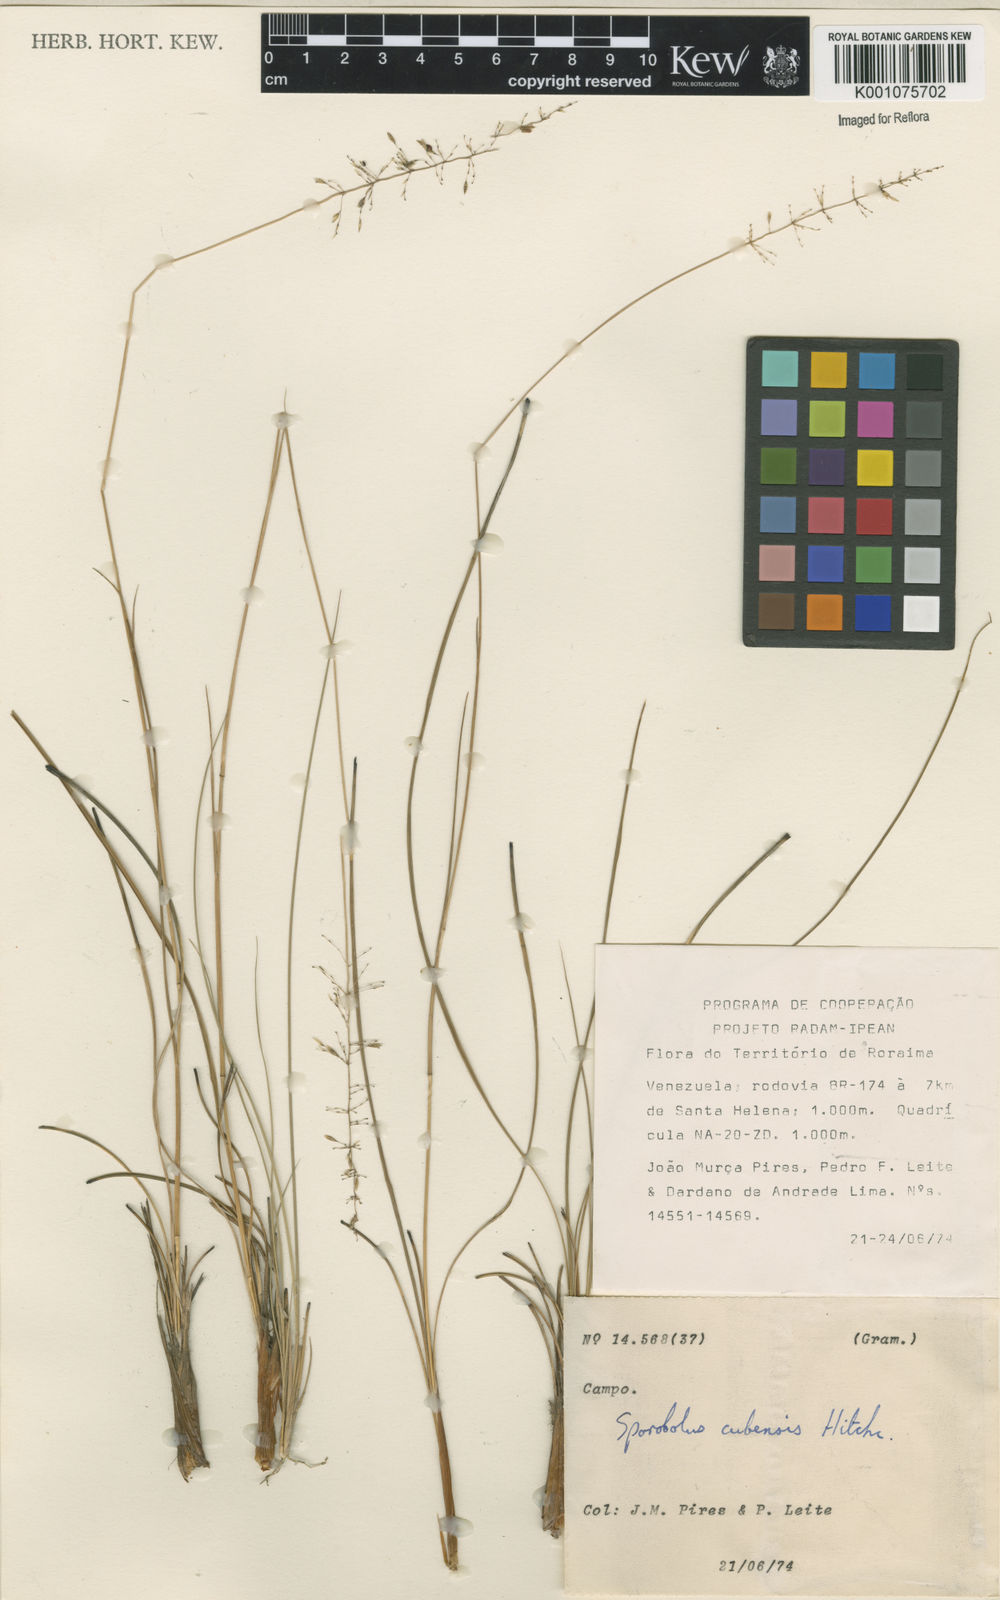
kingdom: Plantae
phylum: Tracheophyta
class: Liliopsida
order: Poales
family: Poaceae
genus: Sporobolus
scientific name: Sporobolus cubensis
